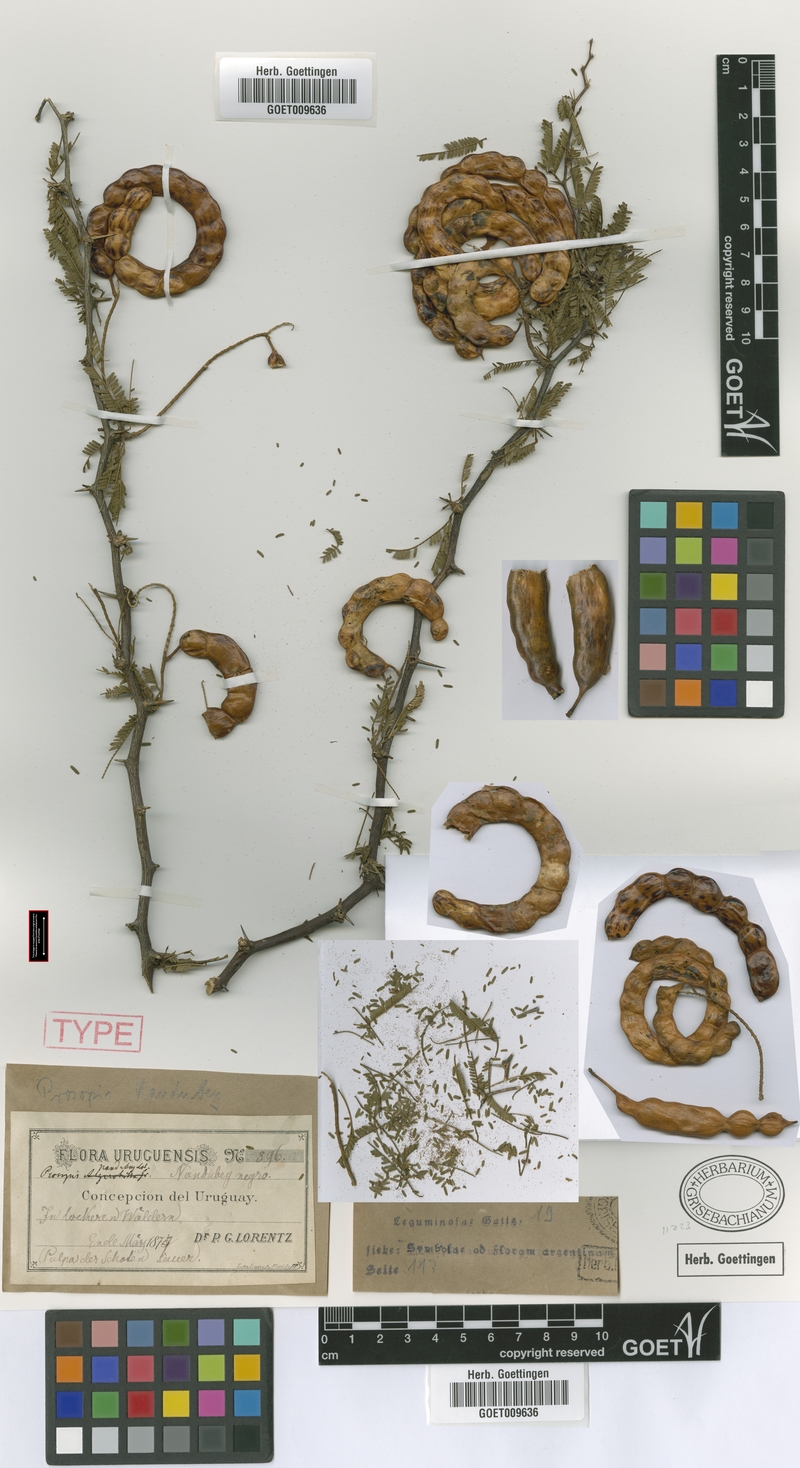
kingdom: Plantae
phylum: Tracheophyta
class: Magnoliopsida
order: Fabales
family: Fabaceae
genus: Prosopis
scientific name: Prosopis affinis
